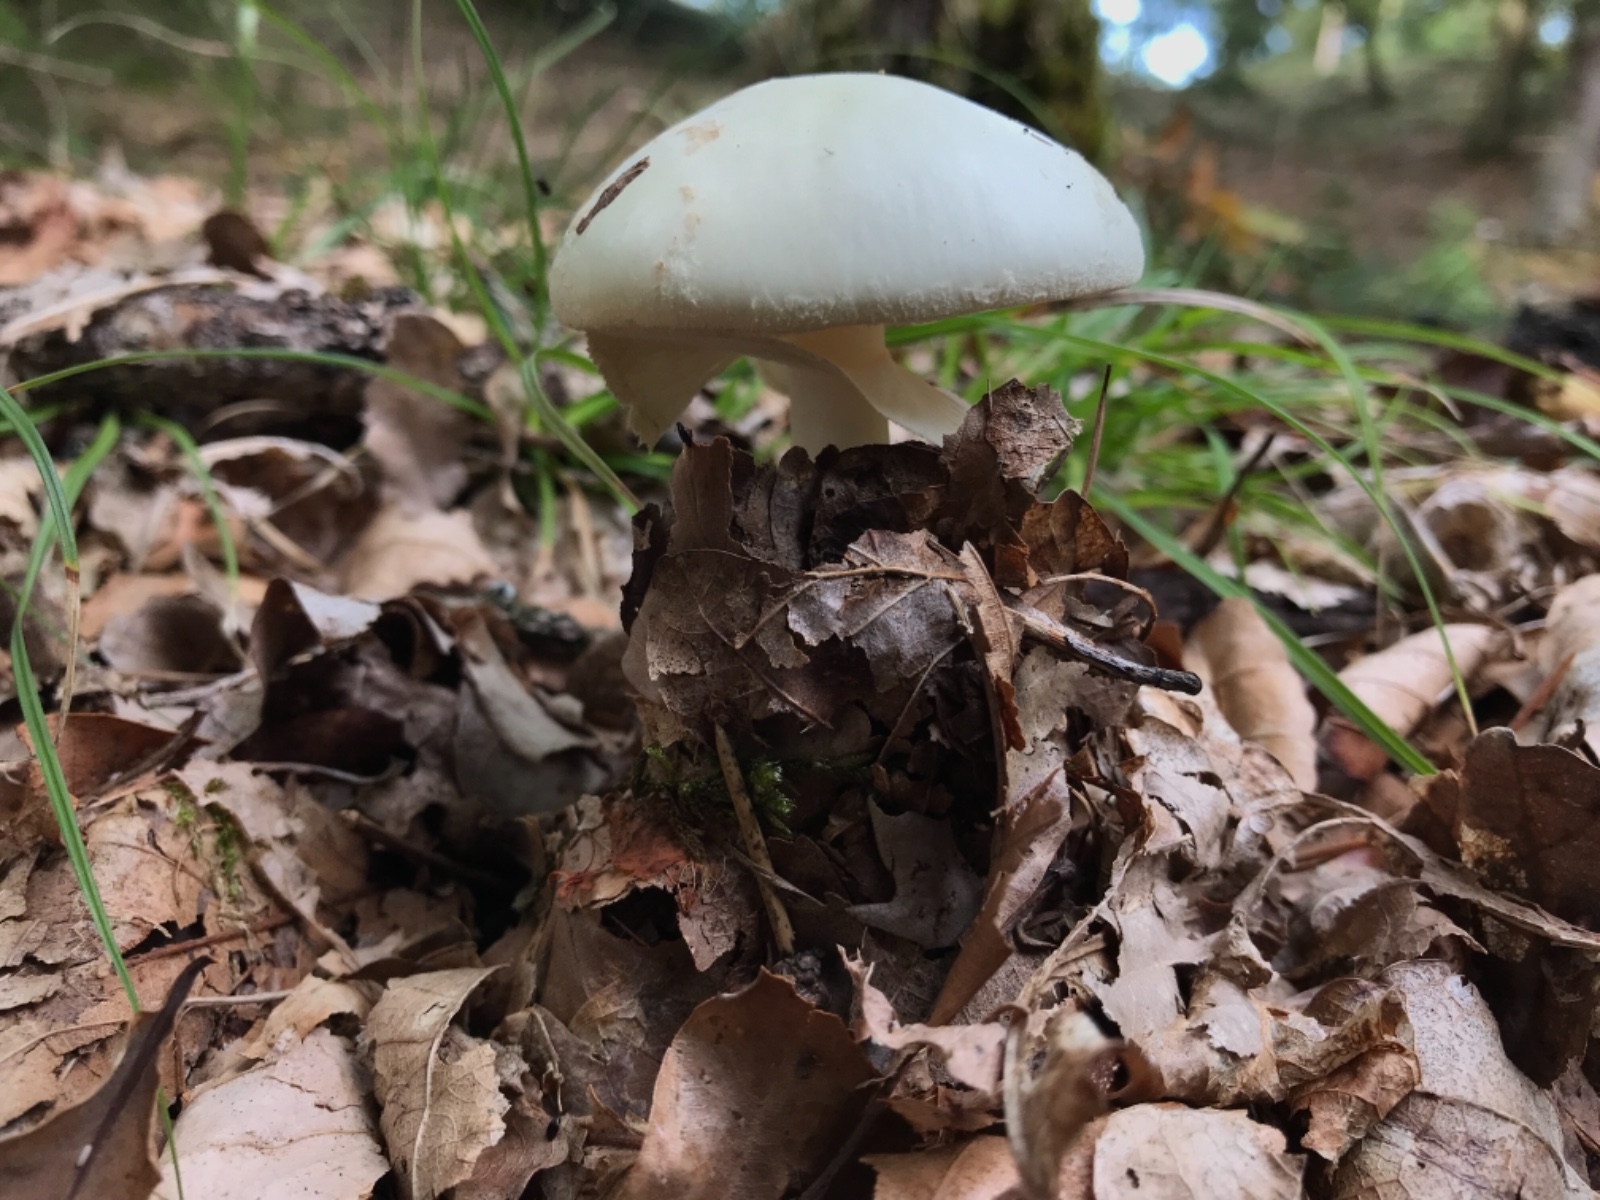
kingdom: Fungi
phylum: Basidiomycota
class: Agaricomycetes
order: Agaricales
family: Amanitaceae
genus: Amanita
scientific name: Amanita citrina
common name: False death-cap
